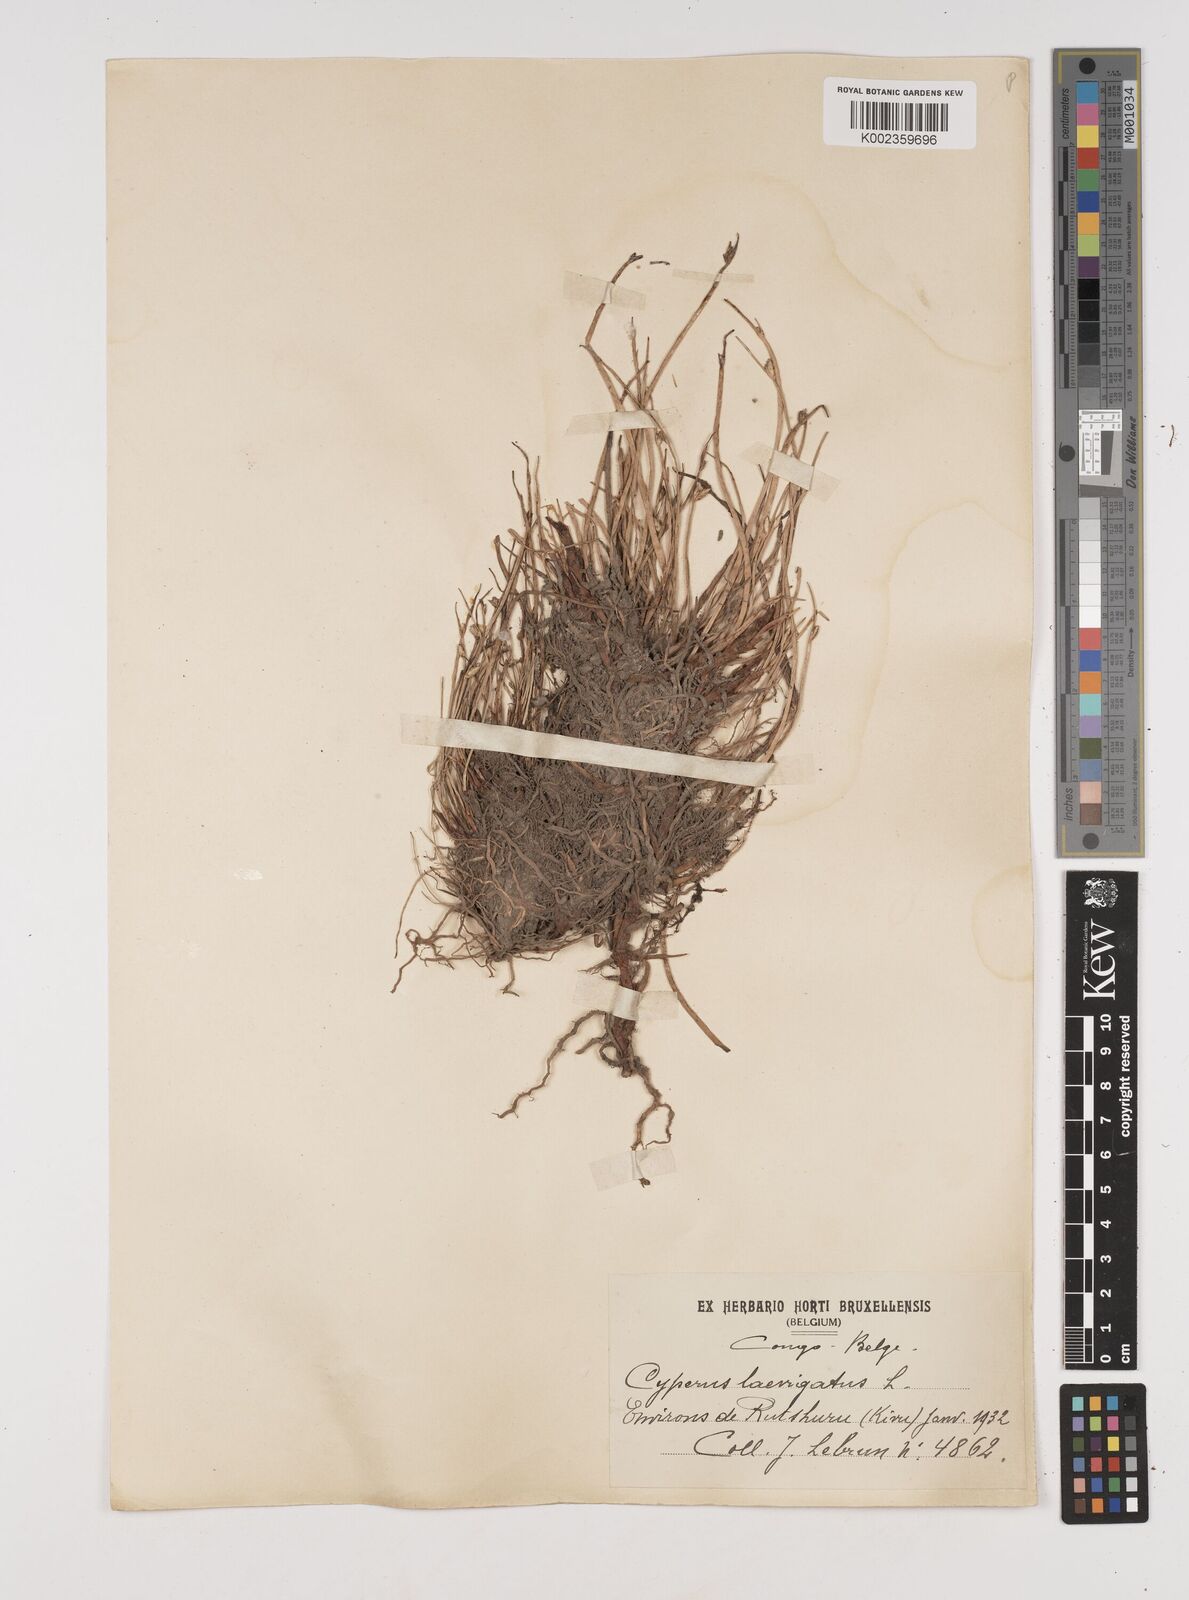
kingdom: Plantae
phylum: Tracheophyta
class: Liliopsida
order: Poales
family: Cyperaceae
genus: Cyperus
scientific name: Cyperus laevigatus
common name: Smooth flat sedge
